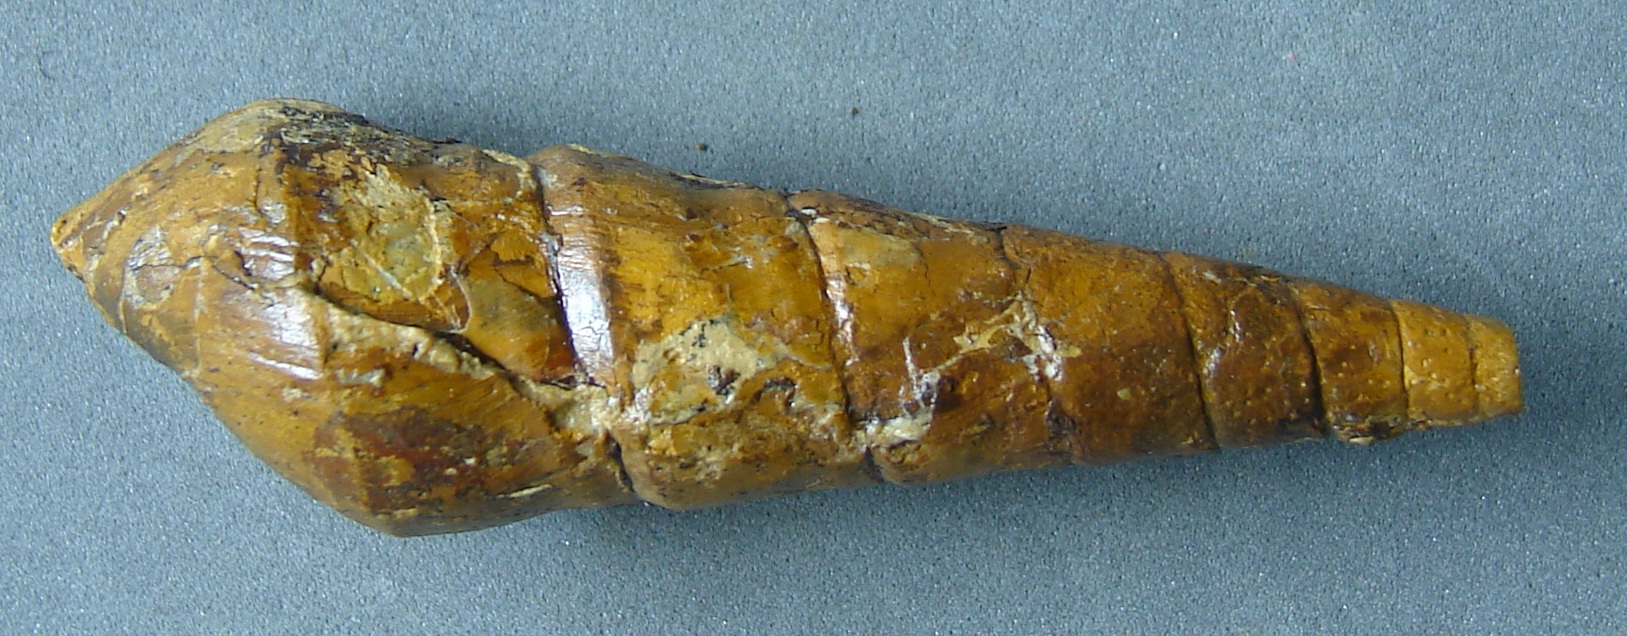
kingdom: Animalia
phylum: Mollusca
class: Gastropoda
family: Pseudomelaniidae
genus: Pseudomelania
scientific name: Pseudomelania
